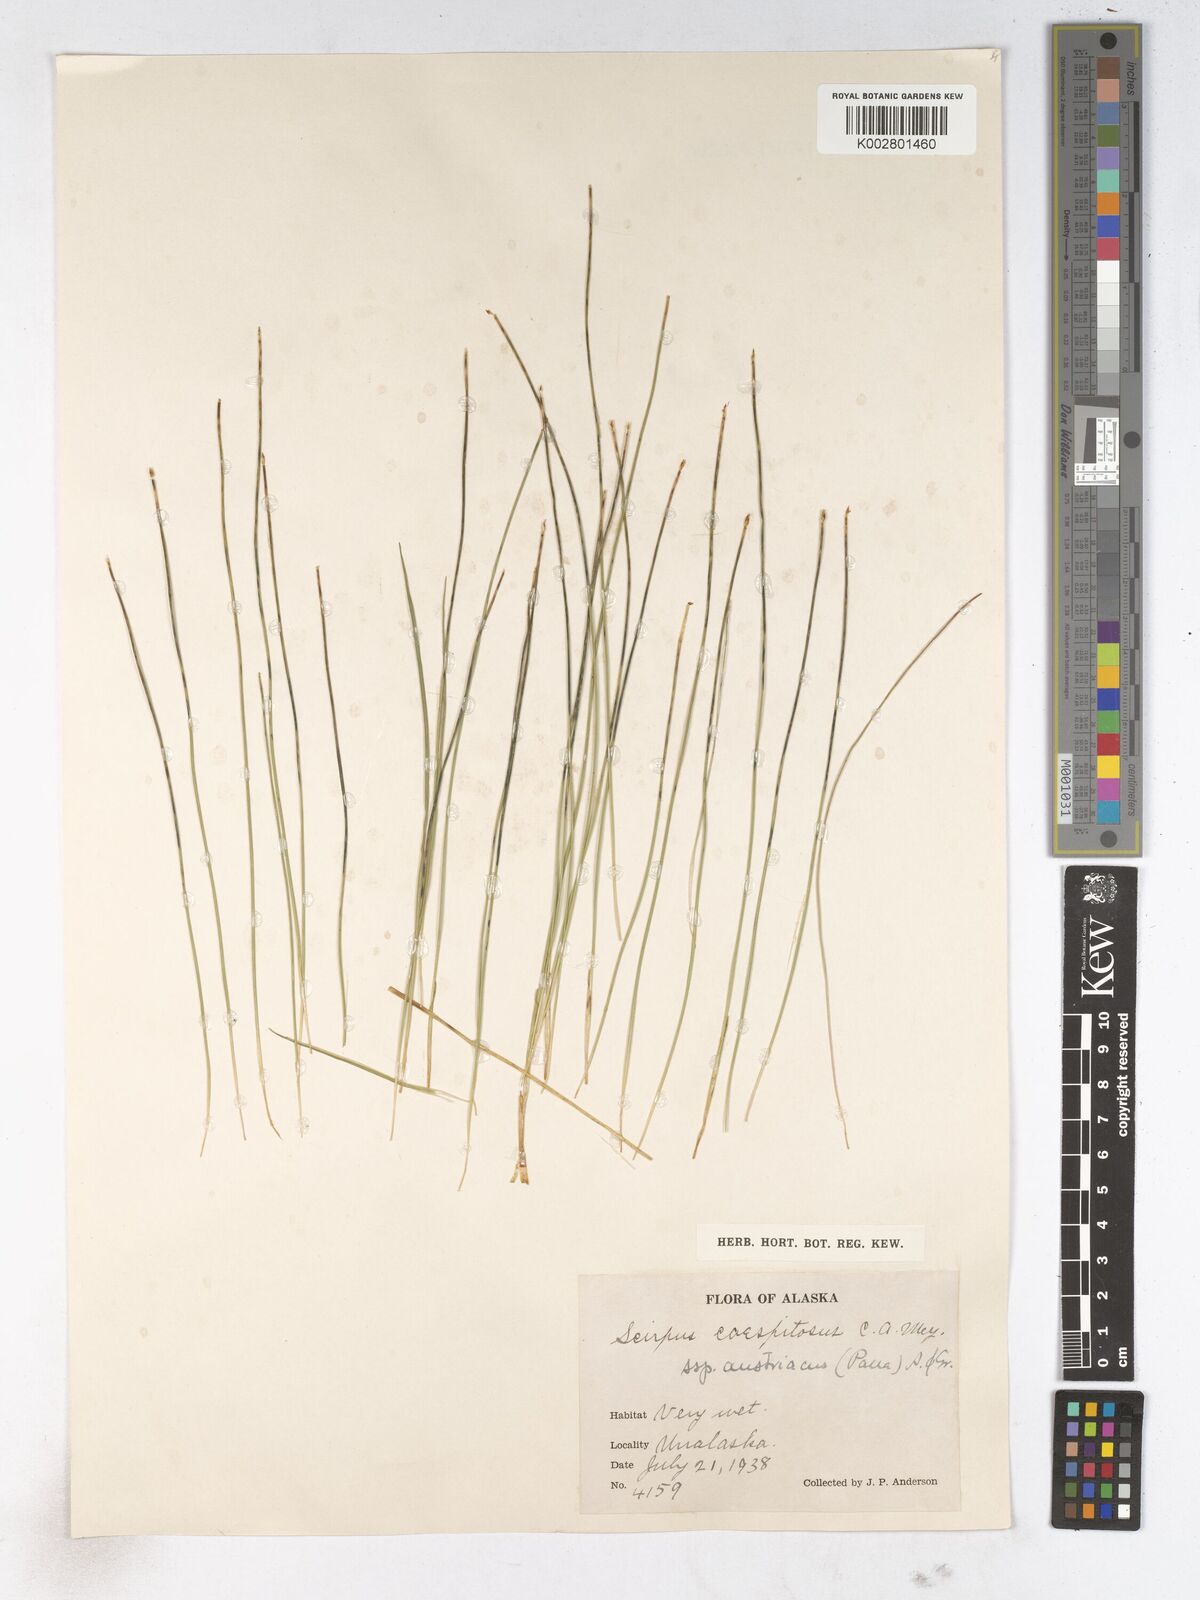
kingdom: Plantae
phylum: Tracheophyta
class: Liliopsida
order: Poales
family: Cyperaceae
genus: Trichophorum
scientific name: Trichophorum cespitosum
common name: Cespitose bulrush
